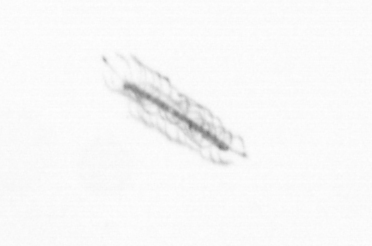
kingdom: Chromista
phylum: Ochrophyta
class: Bacillariophyceae
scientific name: Bacillariophyceae
